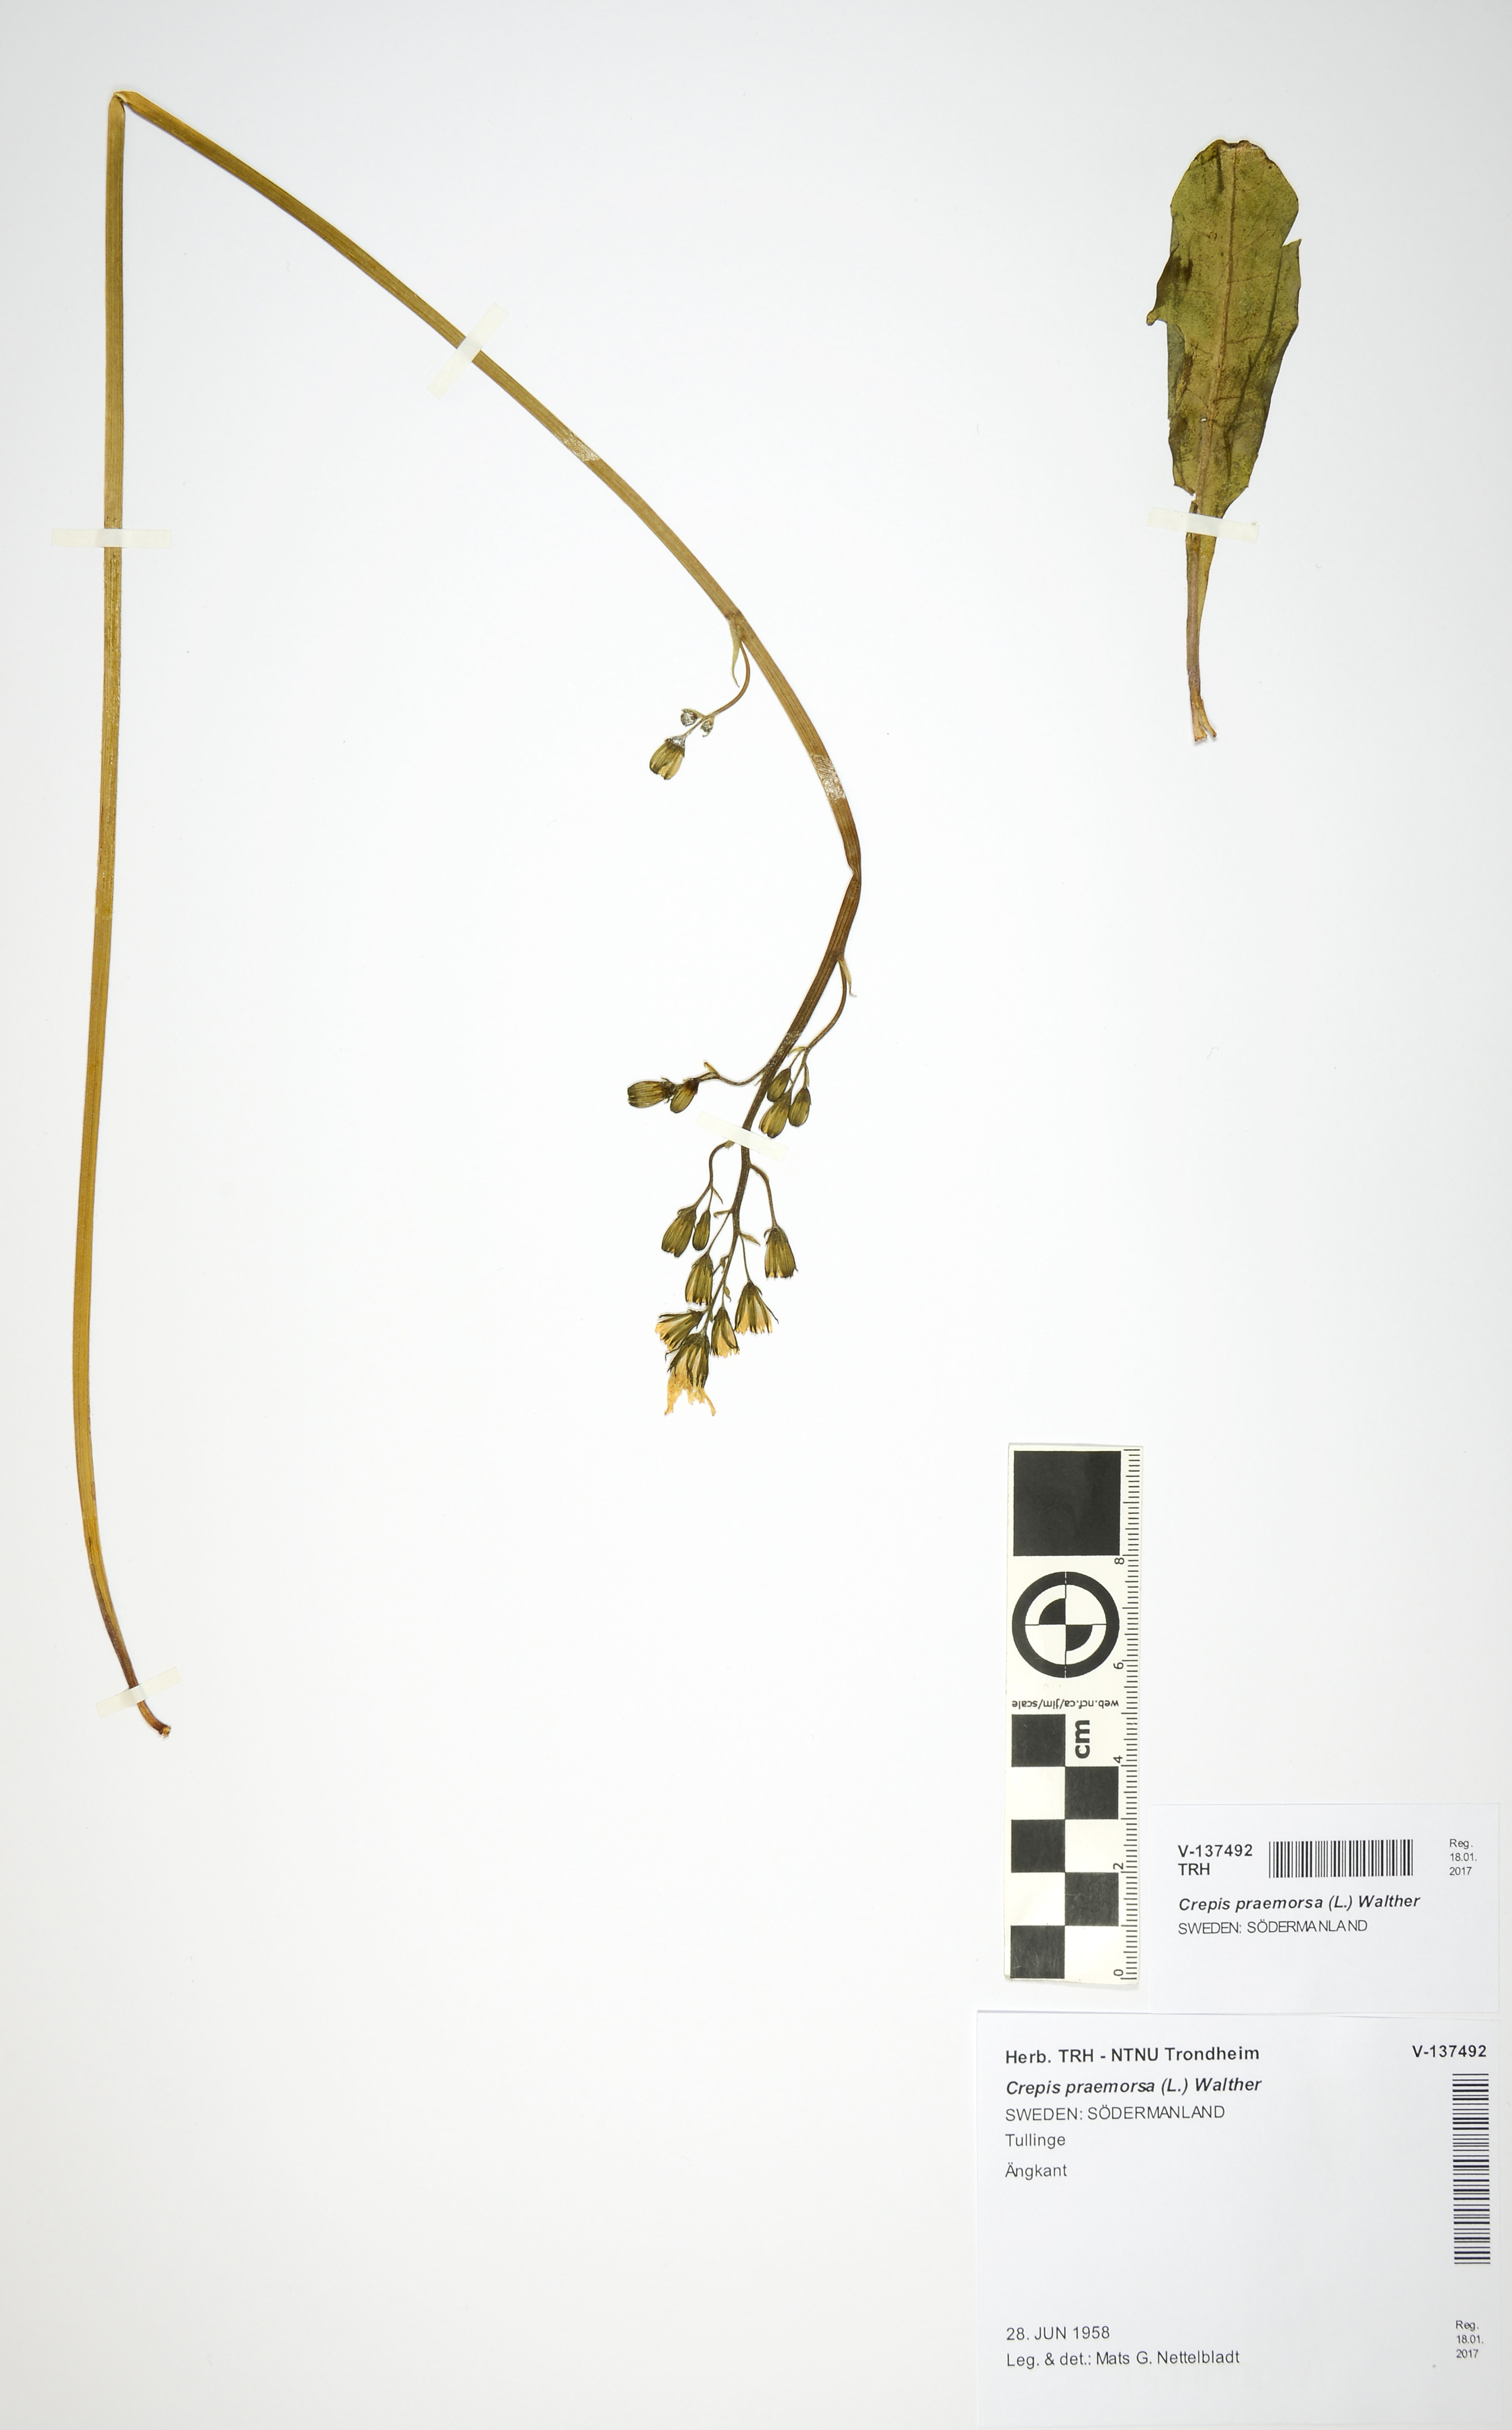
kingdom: Plantae
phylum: Tracheophyta
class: Magnoliopsida
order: Asterales
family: Asteraceae
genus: Crepis
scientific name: Crepis praemorsa
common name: Leafless hawk's-beard
